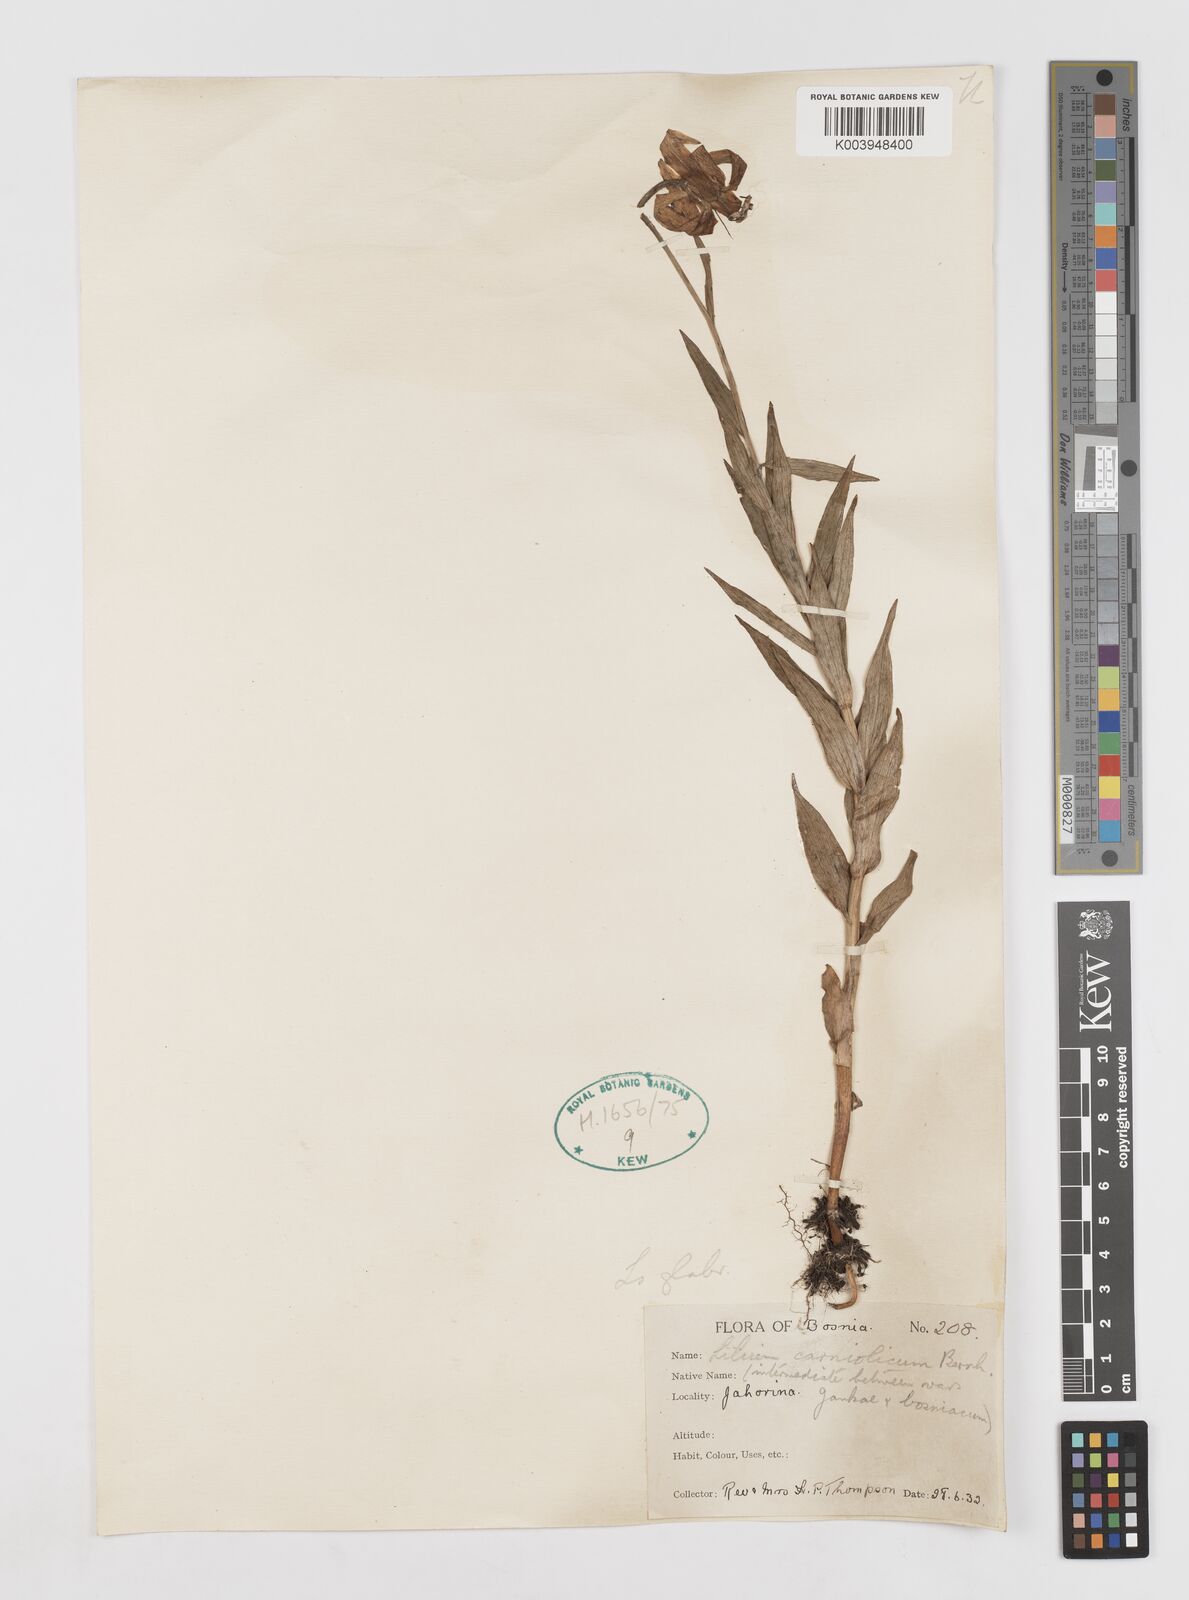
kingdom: Plantae
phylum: Tracheophyta
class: Liliopsida
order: Liliales
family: Liliaceae
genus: Lilium
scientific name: Lilium
